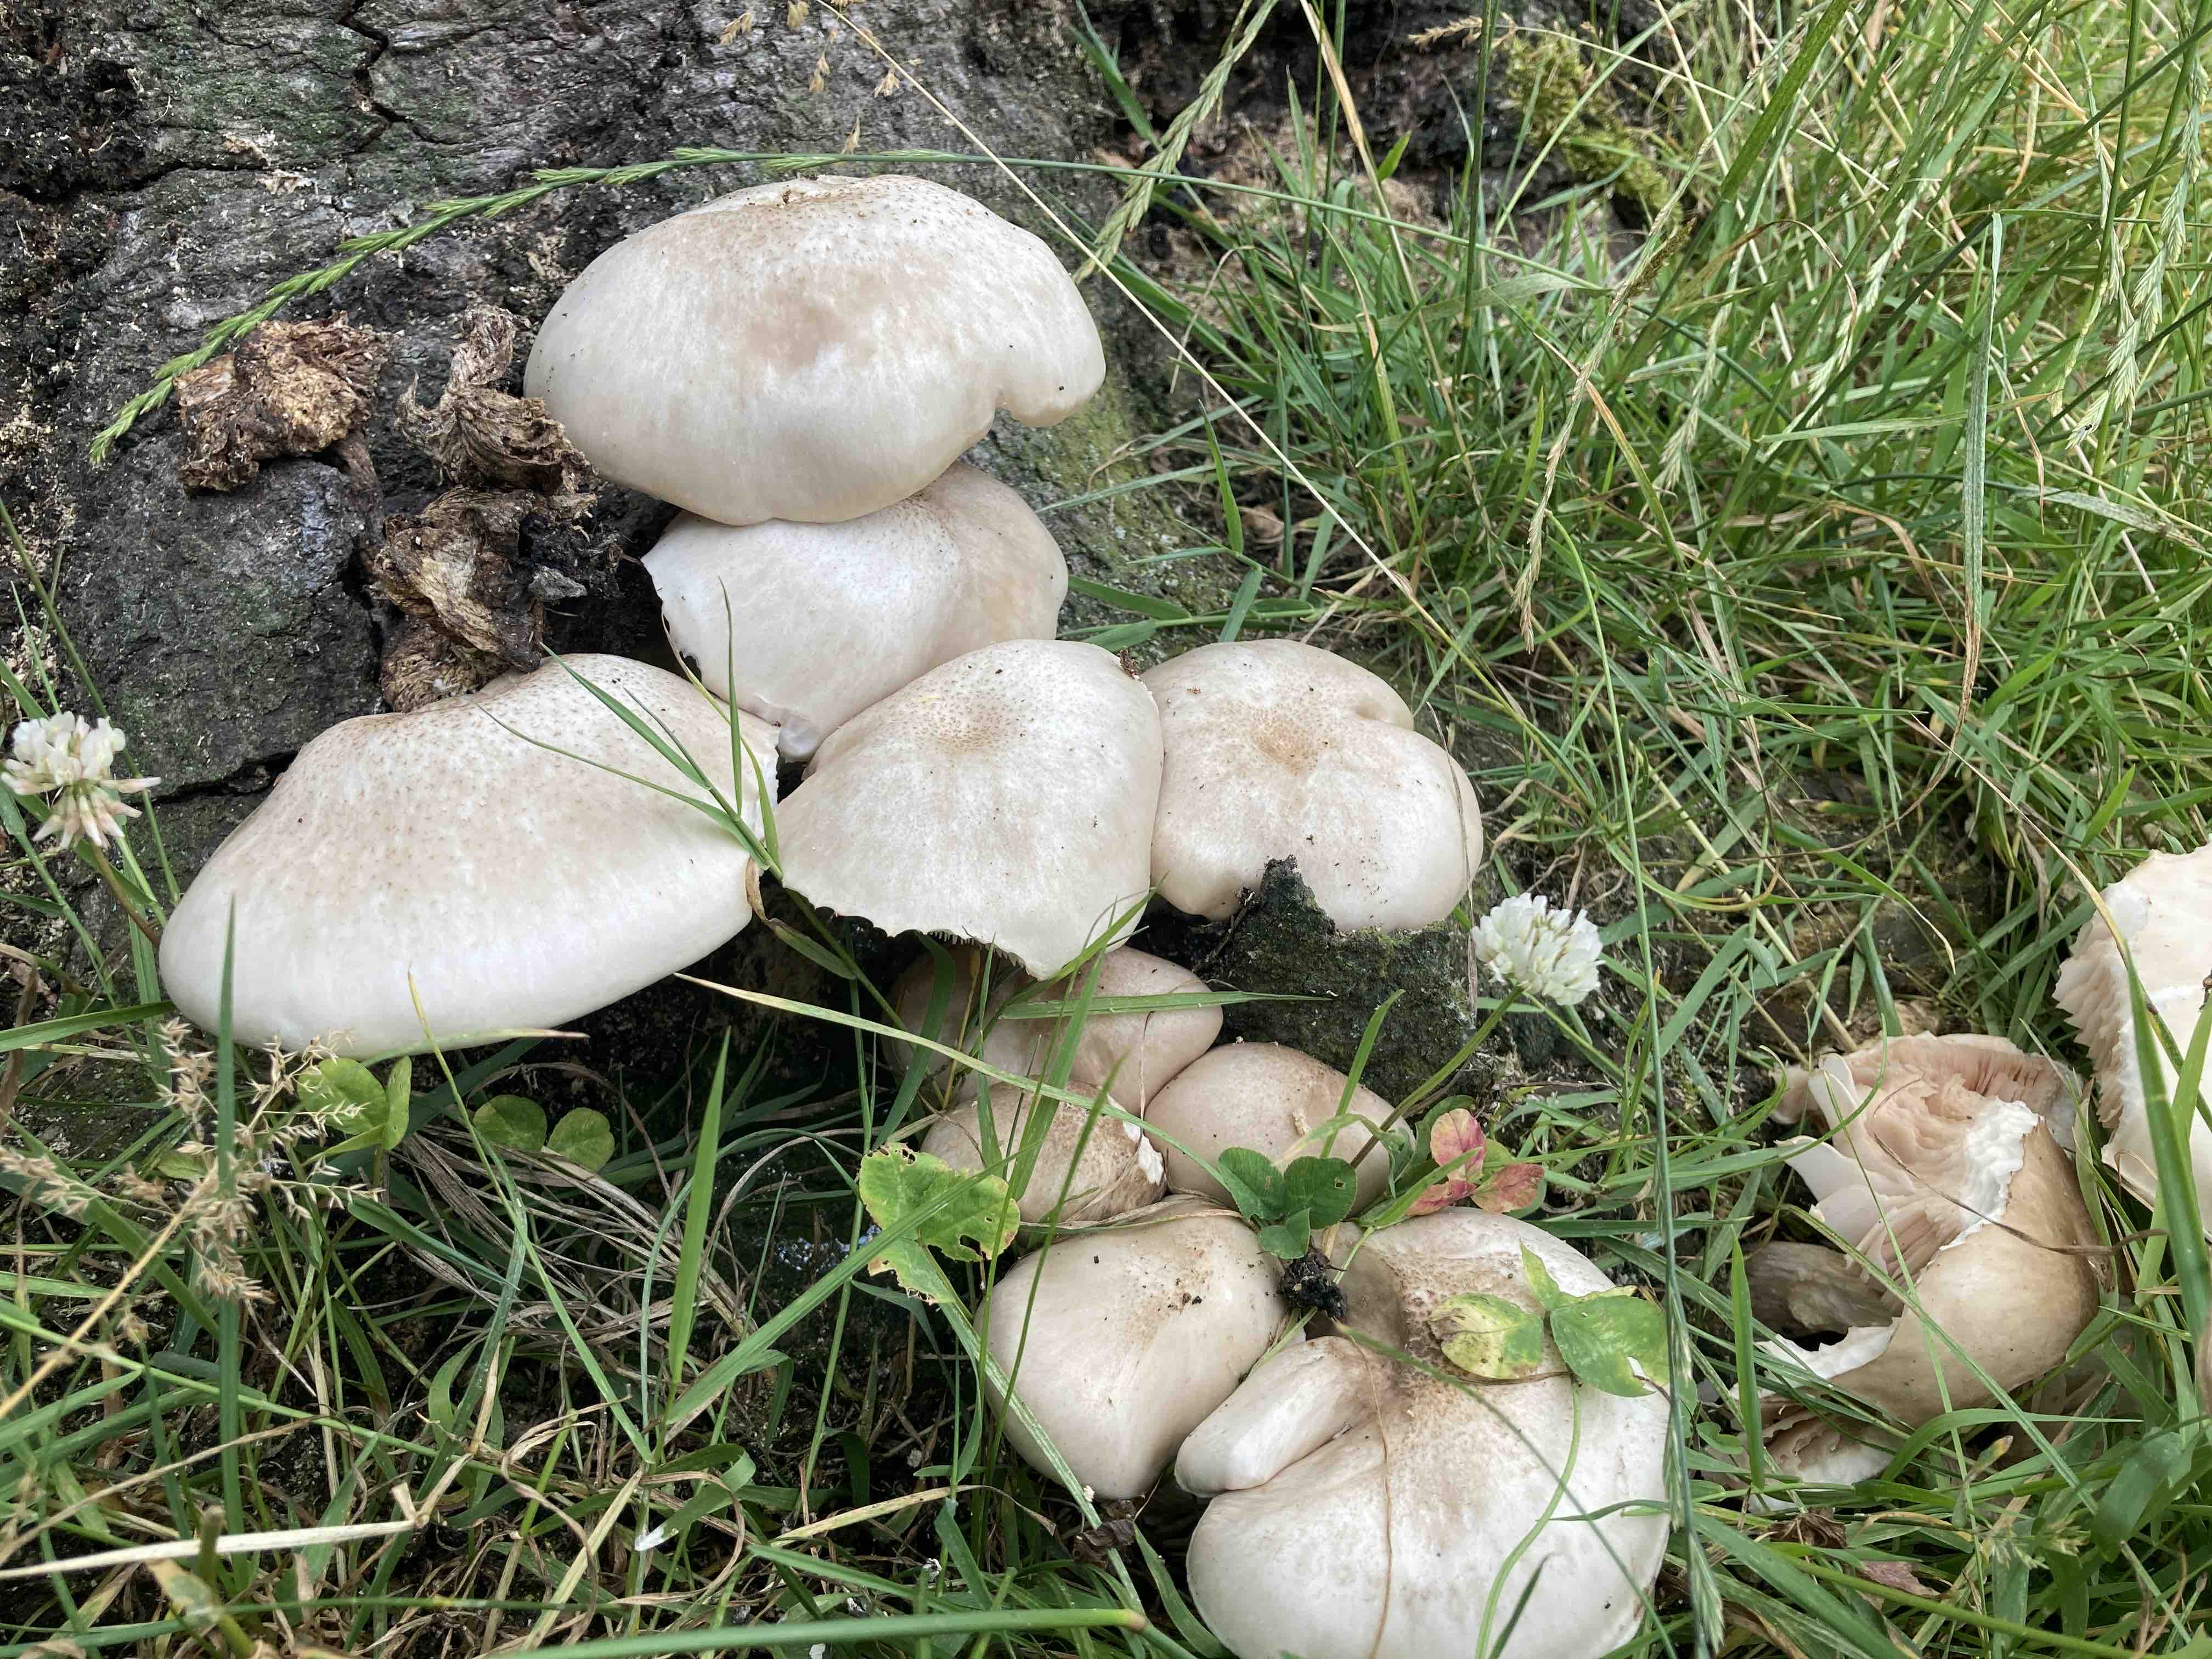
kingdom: Fungi
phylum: Basidiomycota
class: Agaricomycetes
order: Agaricales
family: Pluteaceae
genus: Pluteus
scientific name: Pluteus petasatus
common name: savsmulds-skærmhat
